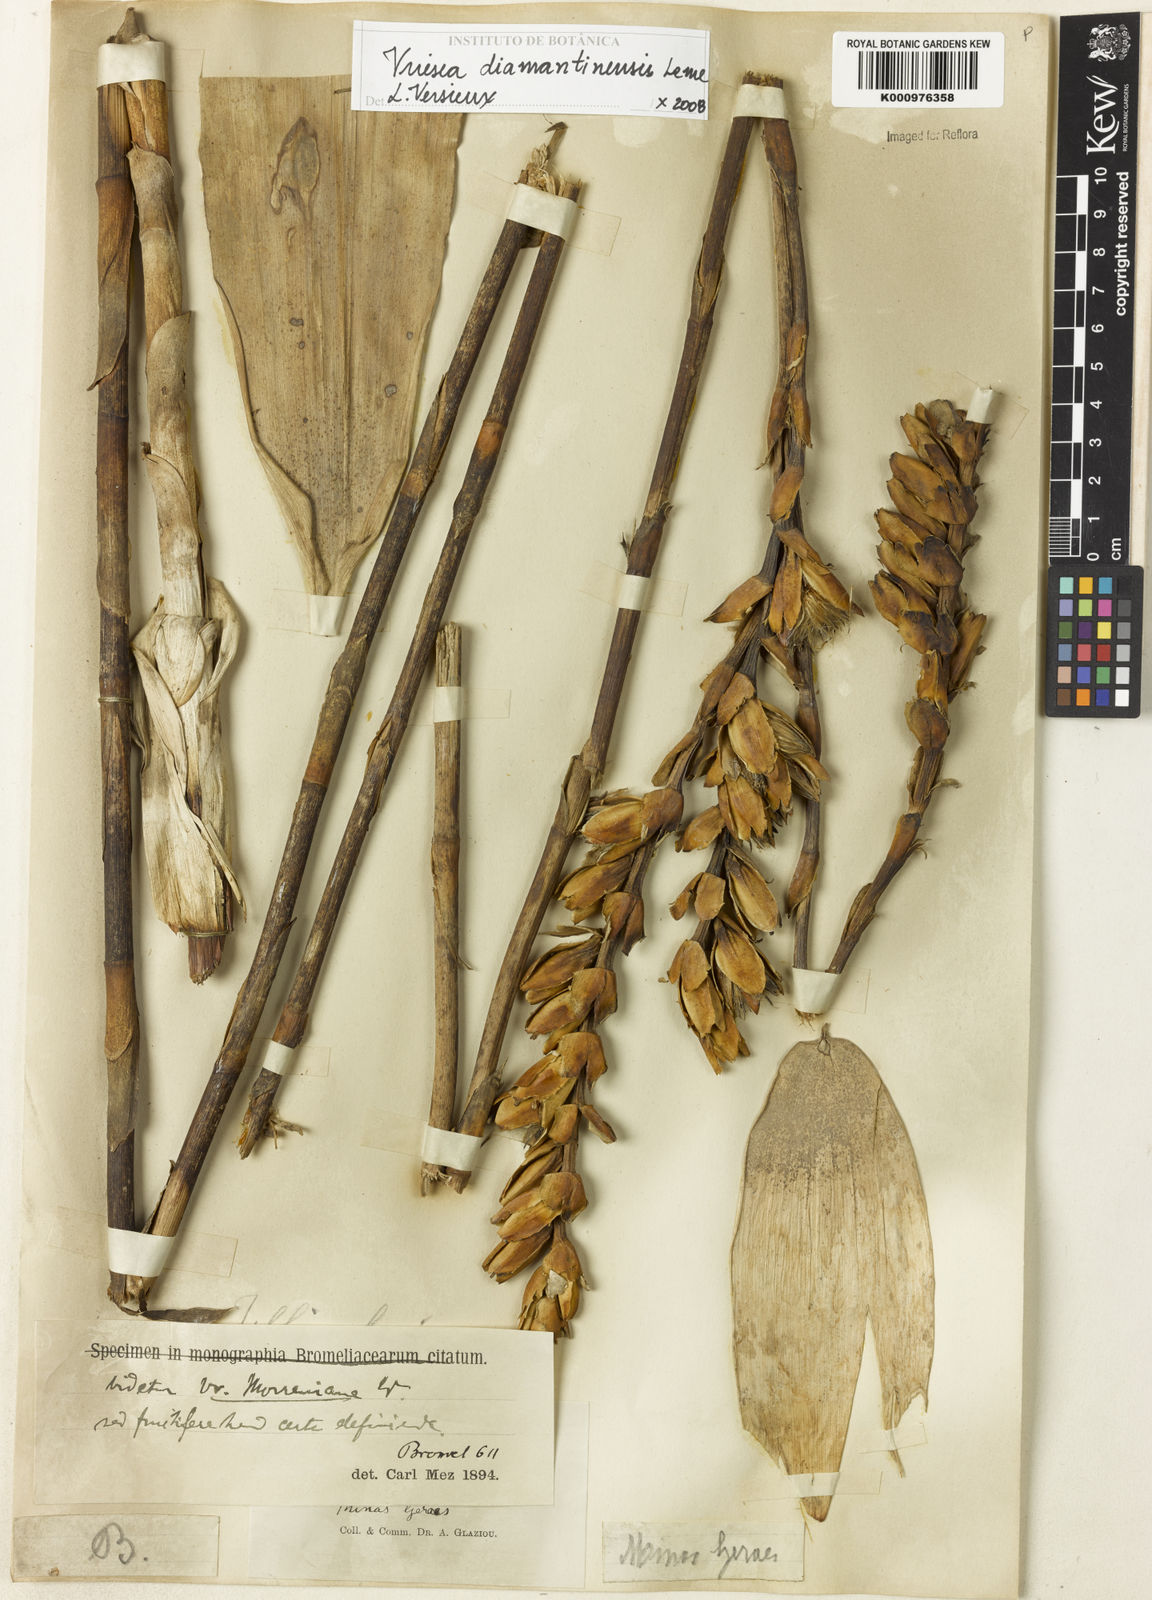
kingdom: Plantae
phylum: Tracheophyta
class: Liliopsida
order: Poales
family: Bromeliaceae
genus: Vriesea
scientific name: Vriesea diamantinensis
